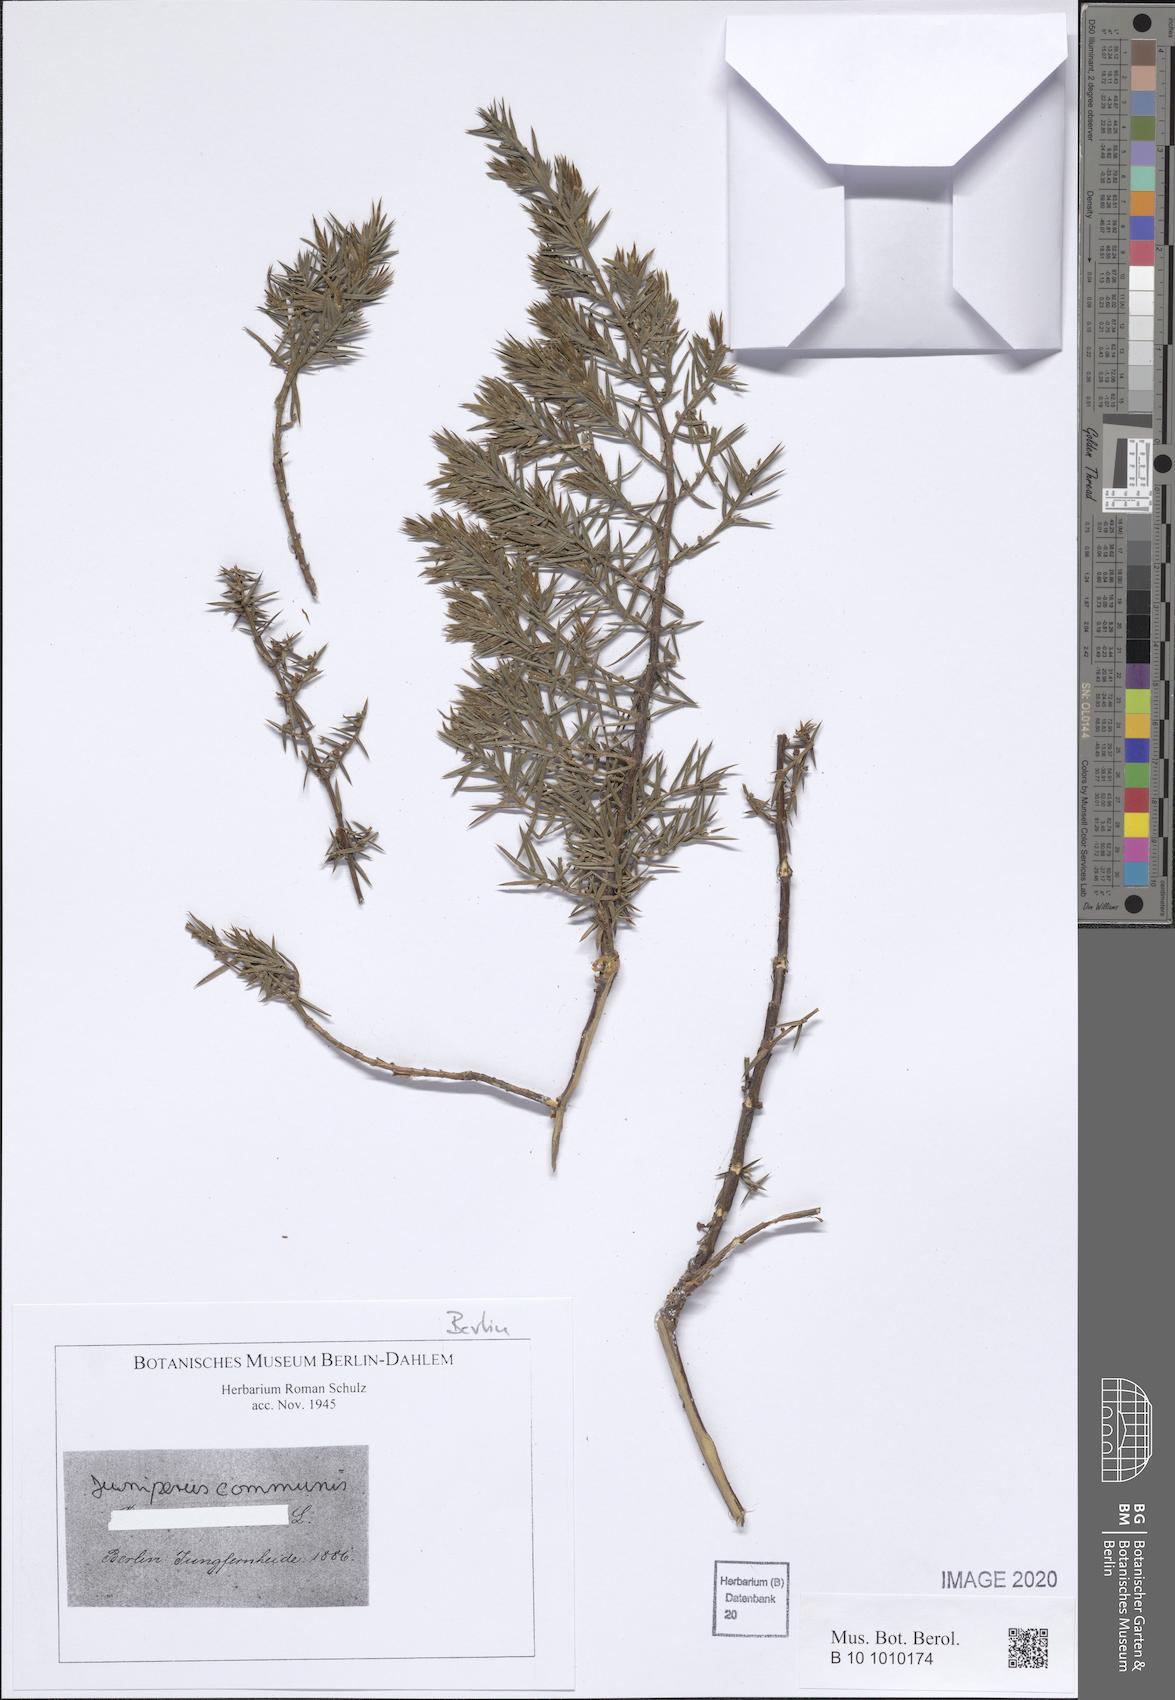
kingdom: Plantae
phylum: Tracheophyta
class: Pinopsida
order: Pinales
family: Cupressaceae
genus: Juniperus
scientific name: Juniperus communis
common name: Common juniper
